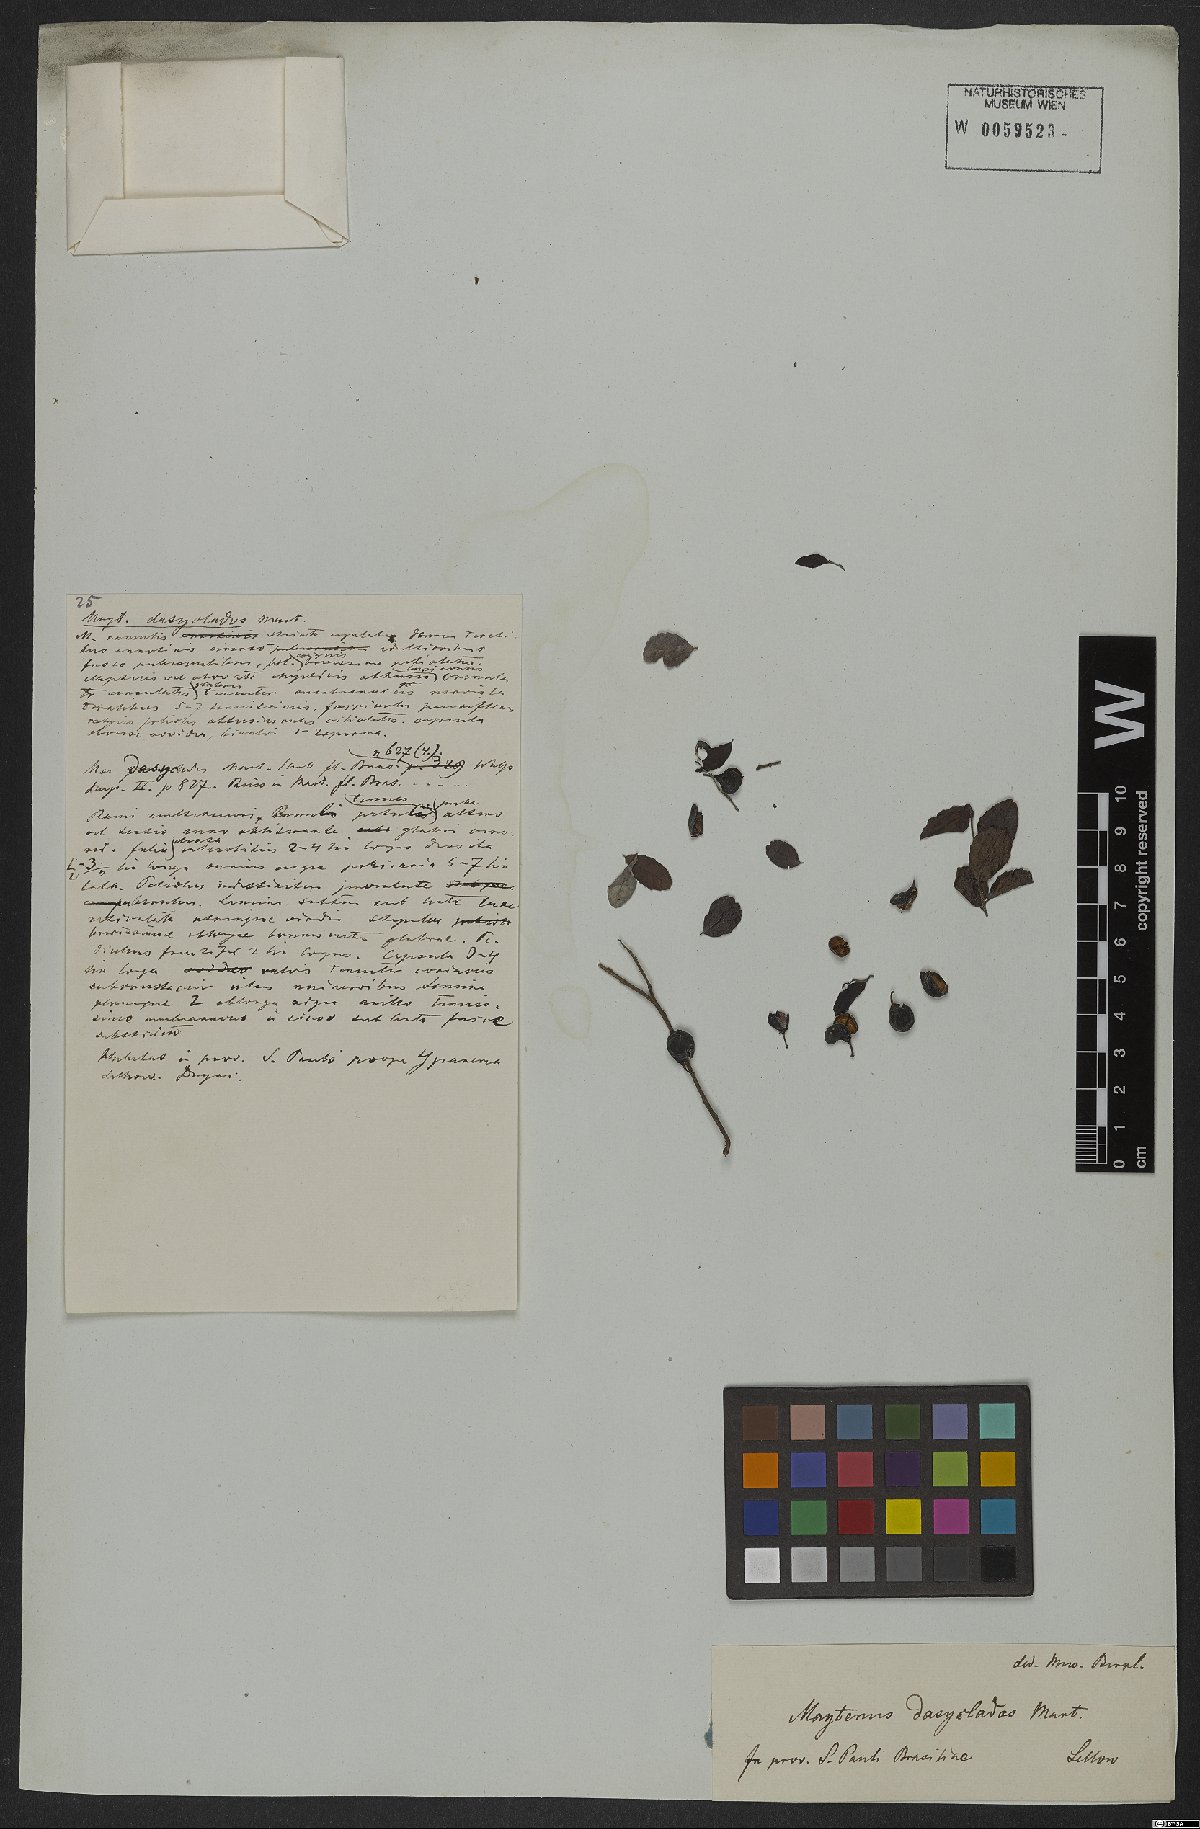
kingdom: Plantae
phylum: Tracheophyta
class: Magnoliopsida
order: Celastrales
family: Celastraceae
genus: Monteverdia
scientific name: Monteverdia dasyclados
